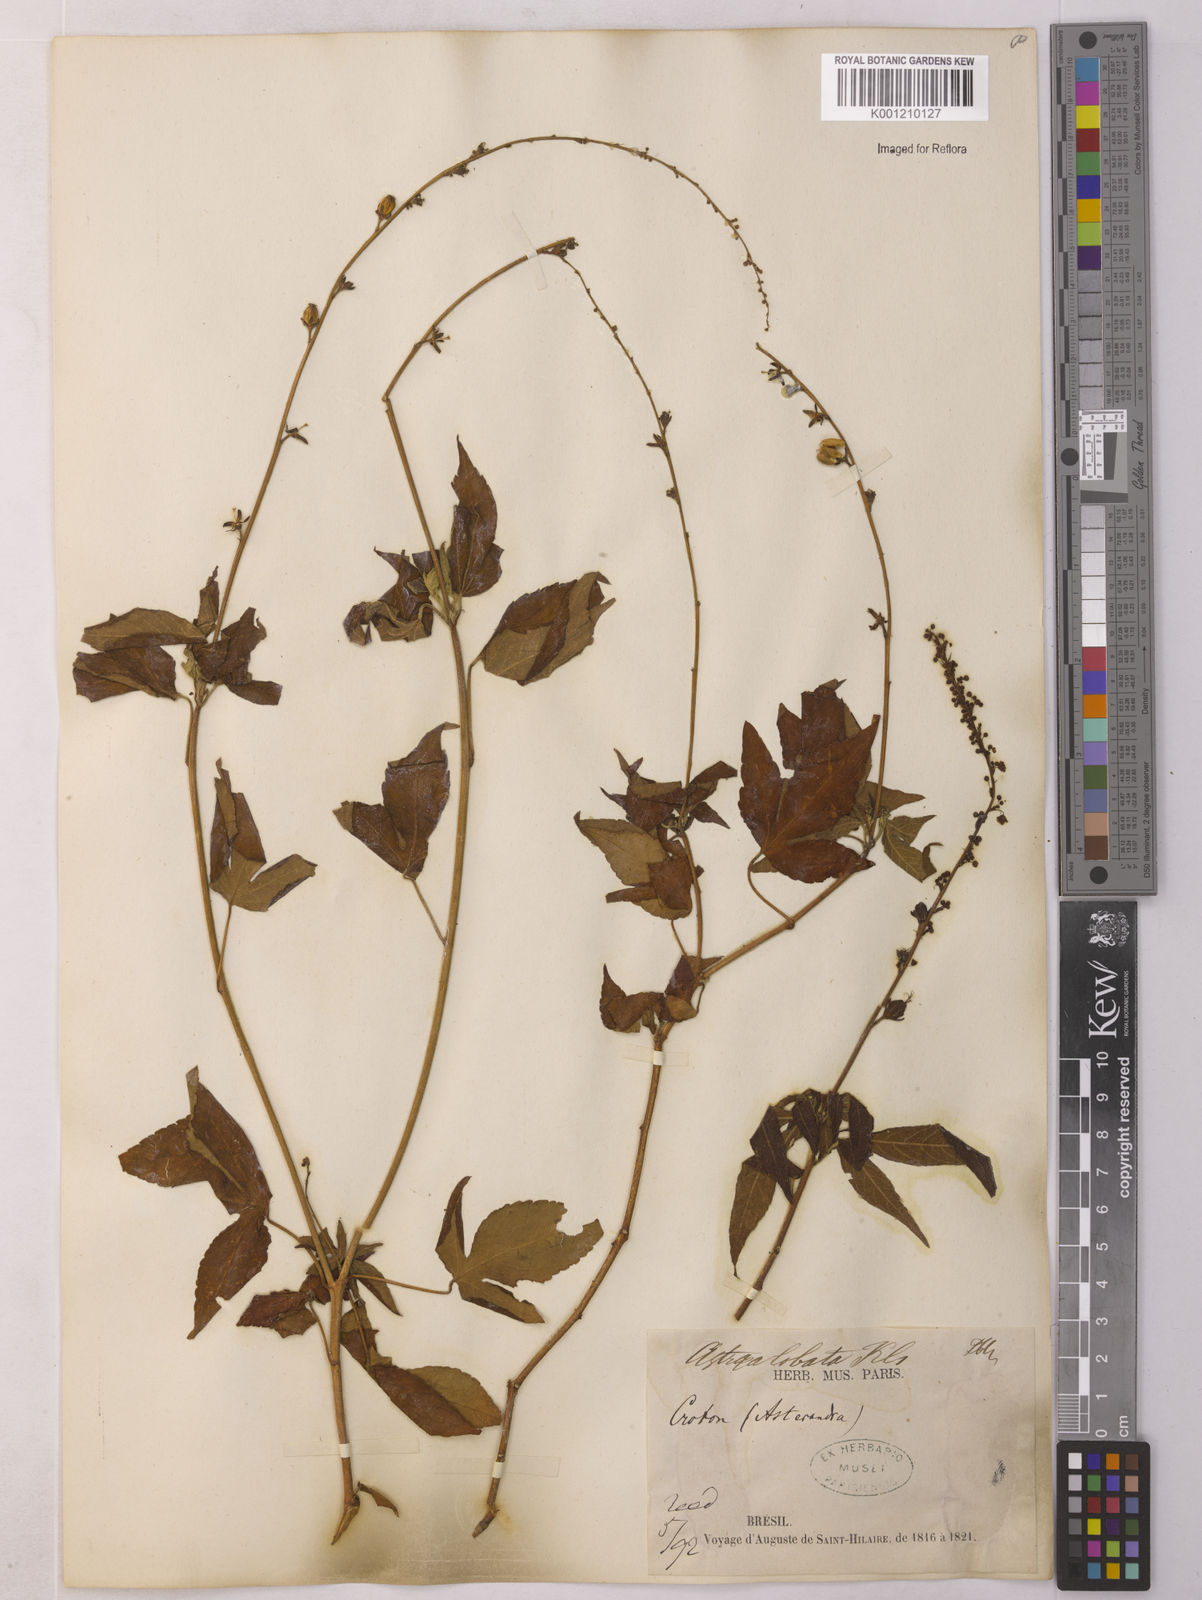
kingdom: Plantae
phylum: Tracheophyta
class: Magnoliopsida
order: Malpighiales
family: Euphorbiaceae
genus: Astraea
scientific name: Astraea macroura
